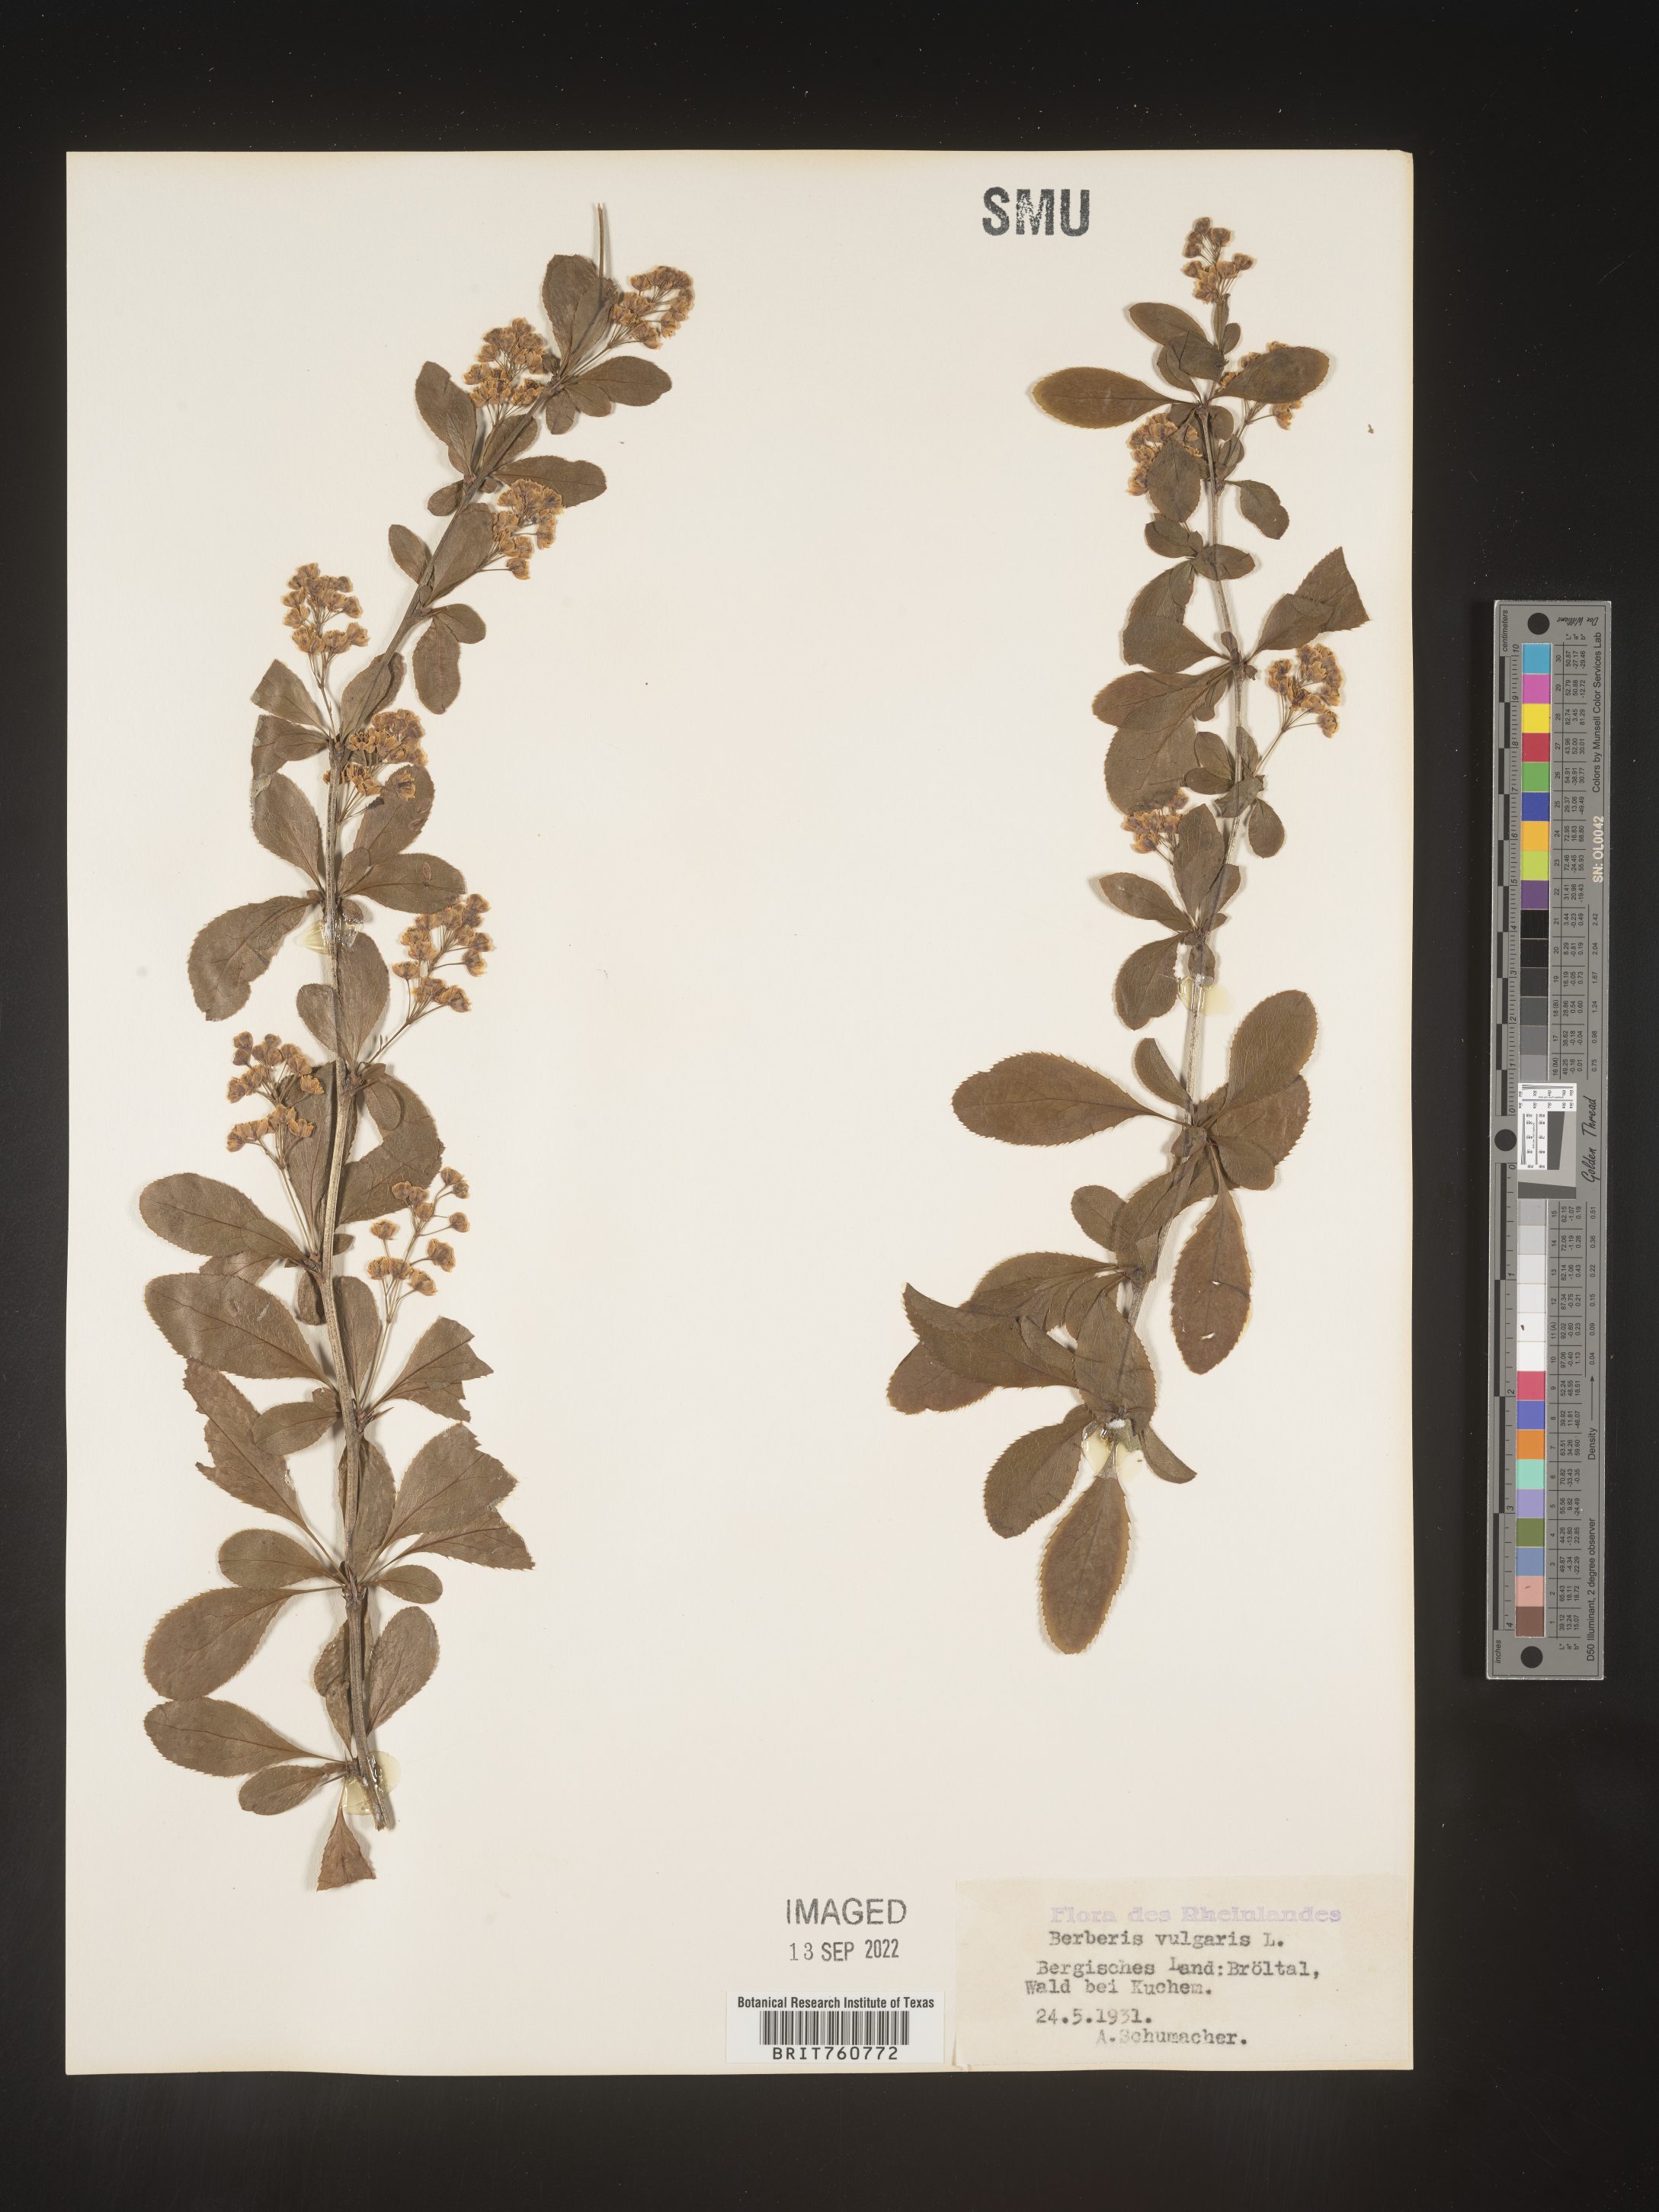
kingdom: Plantae
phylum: Tracheophyta
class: Magnoliopsida
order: Ranunculales
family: Berberidaceae
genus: Berberis
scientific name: Berberis
